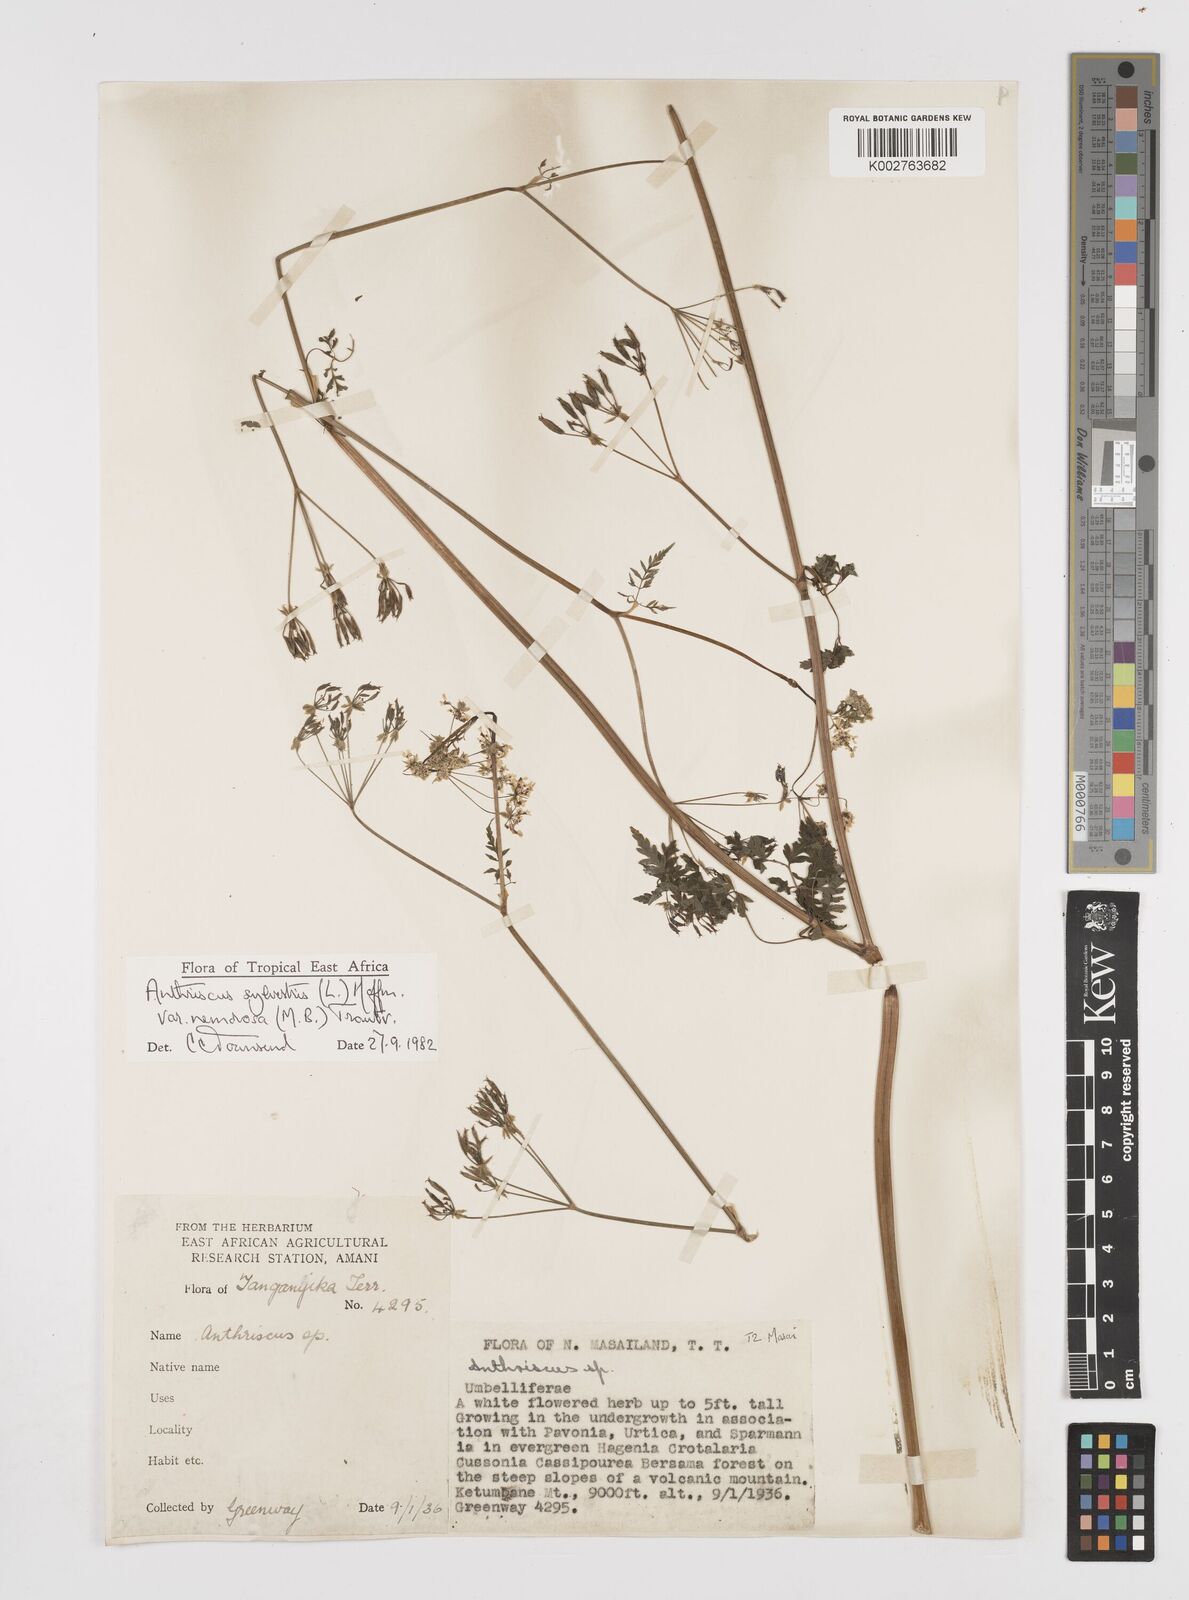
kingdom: Plantae
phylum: Tracheophyta
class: Magnoliopsida
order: Apiales
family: Apiaceae
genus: Anthriscus
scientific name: Anthriscus sylvestris
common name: Cow parsley
